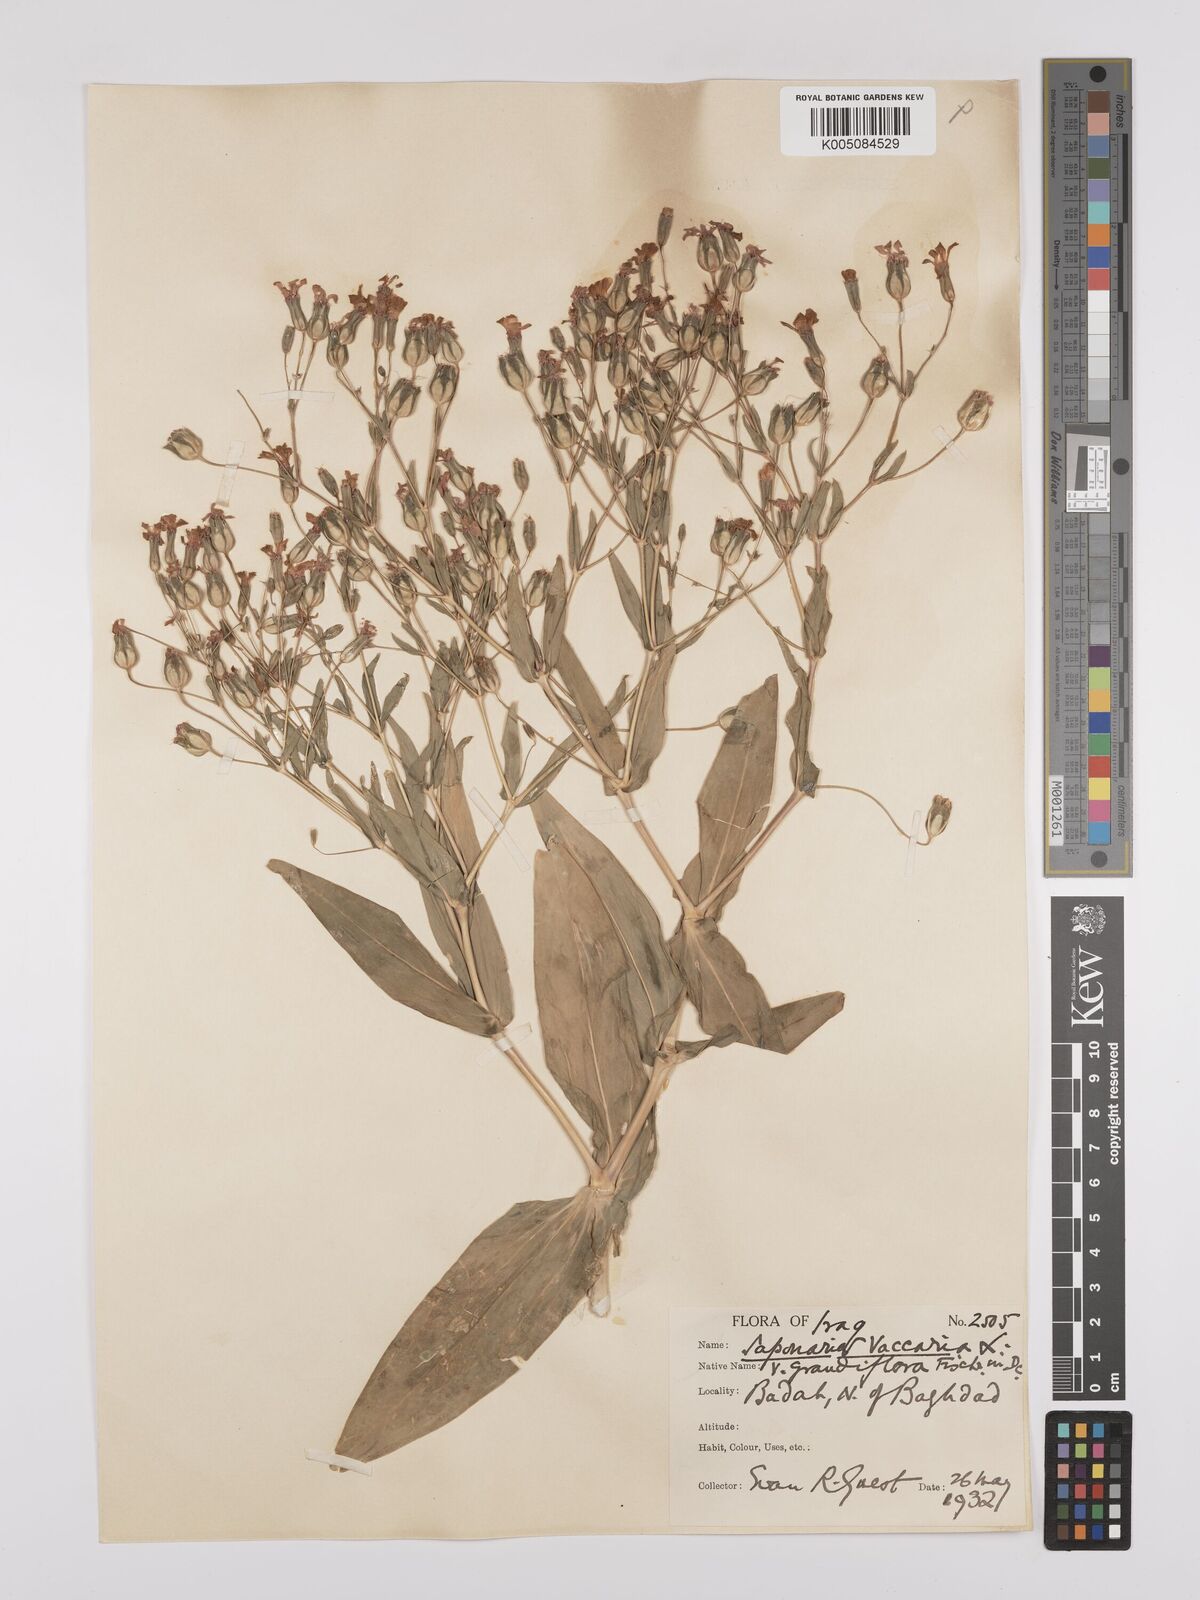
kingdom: Plantae
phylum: Tracheophyta
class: Magnoliopsida
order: Caryophyllales
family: Caryophyllaceae
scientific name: Caryophyllaceae
